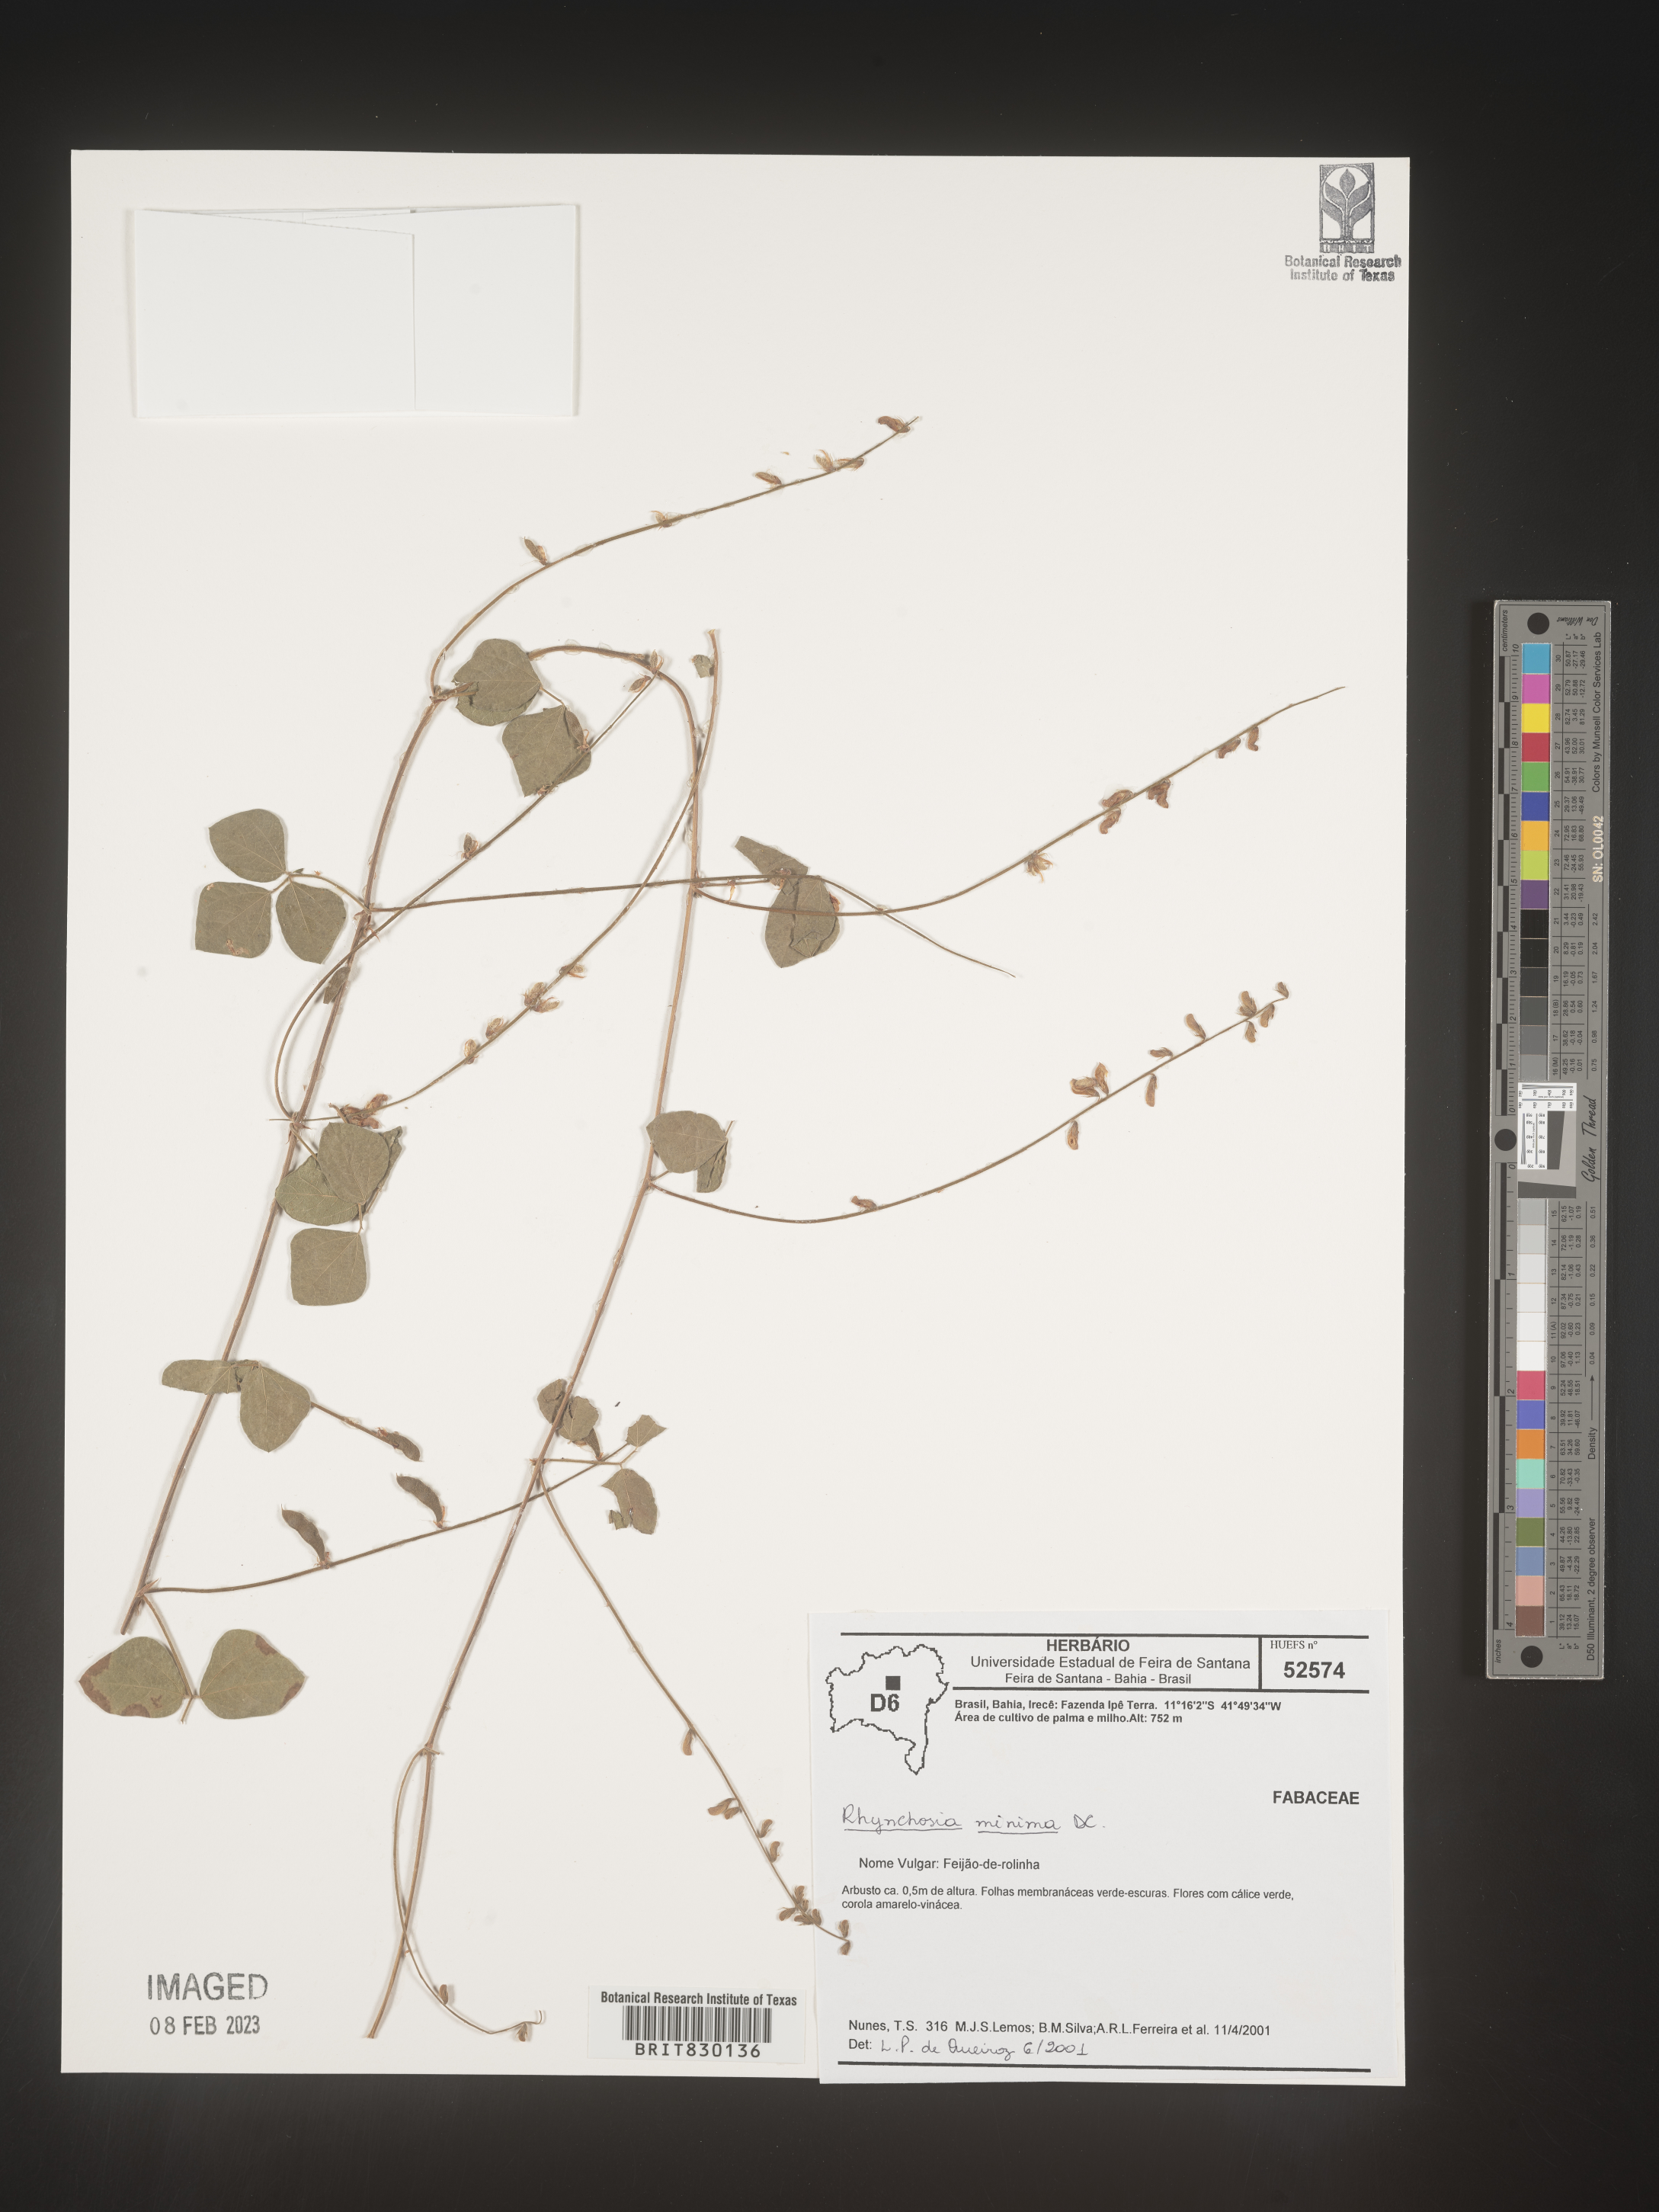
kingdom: Plantae
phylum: Tracheophyta
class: Magnoliopsida
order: Fabales
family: Fabaceae
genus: Rhynchosia
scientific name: Rhynchosia
